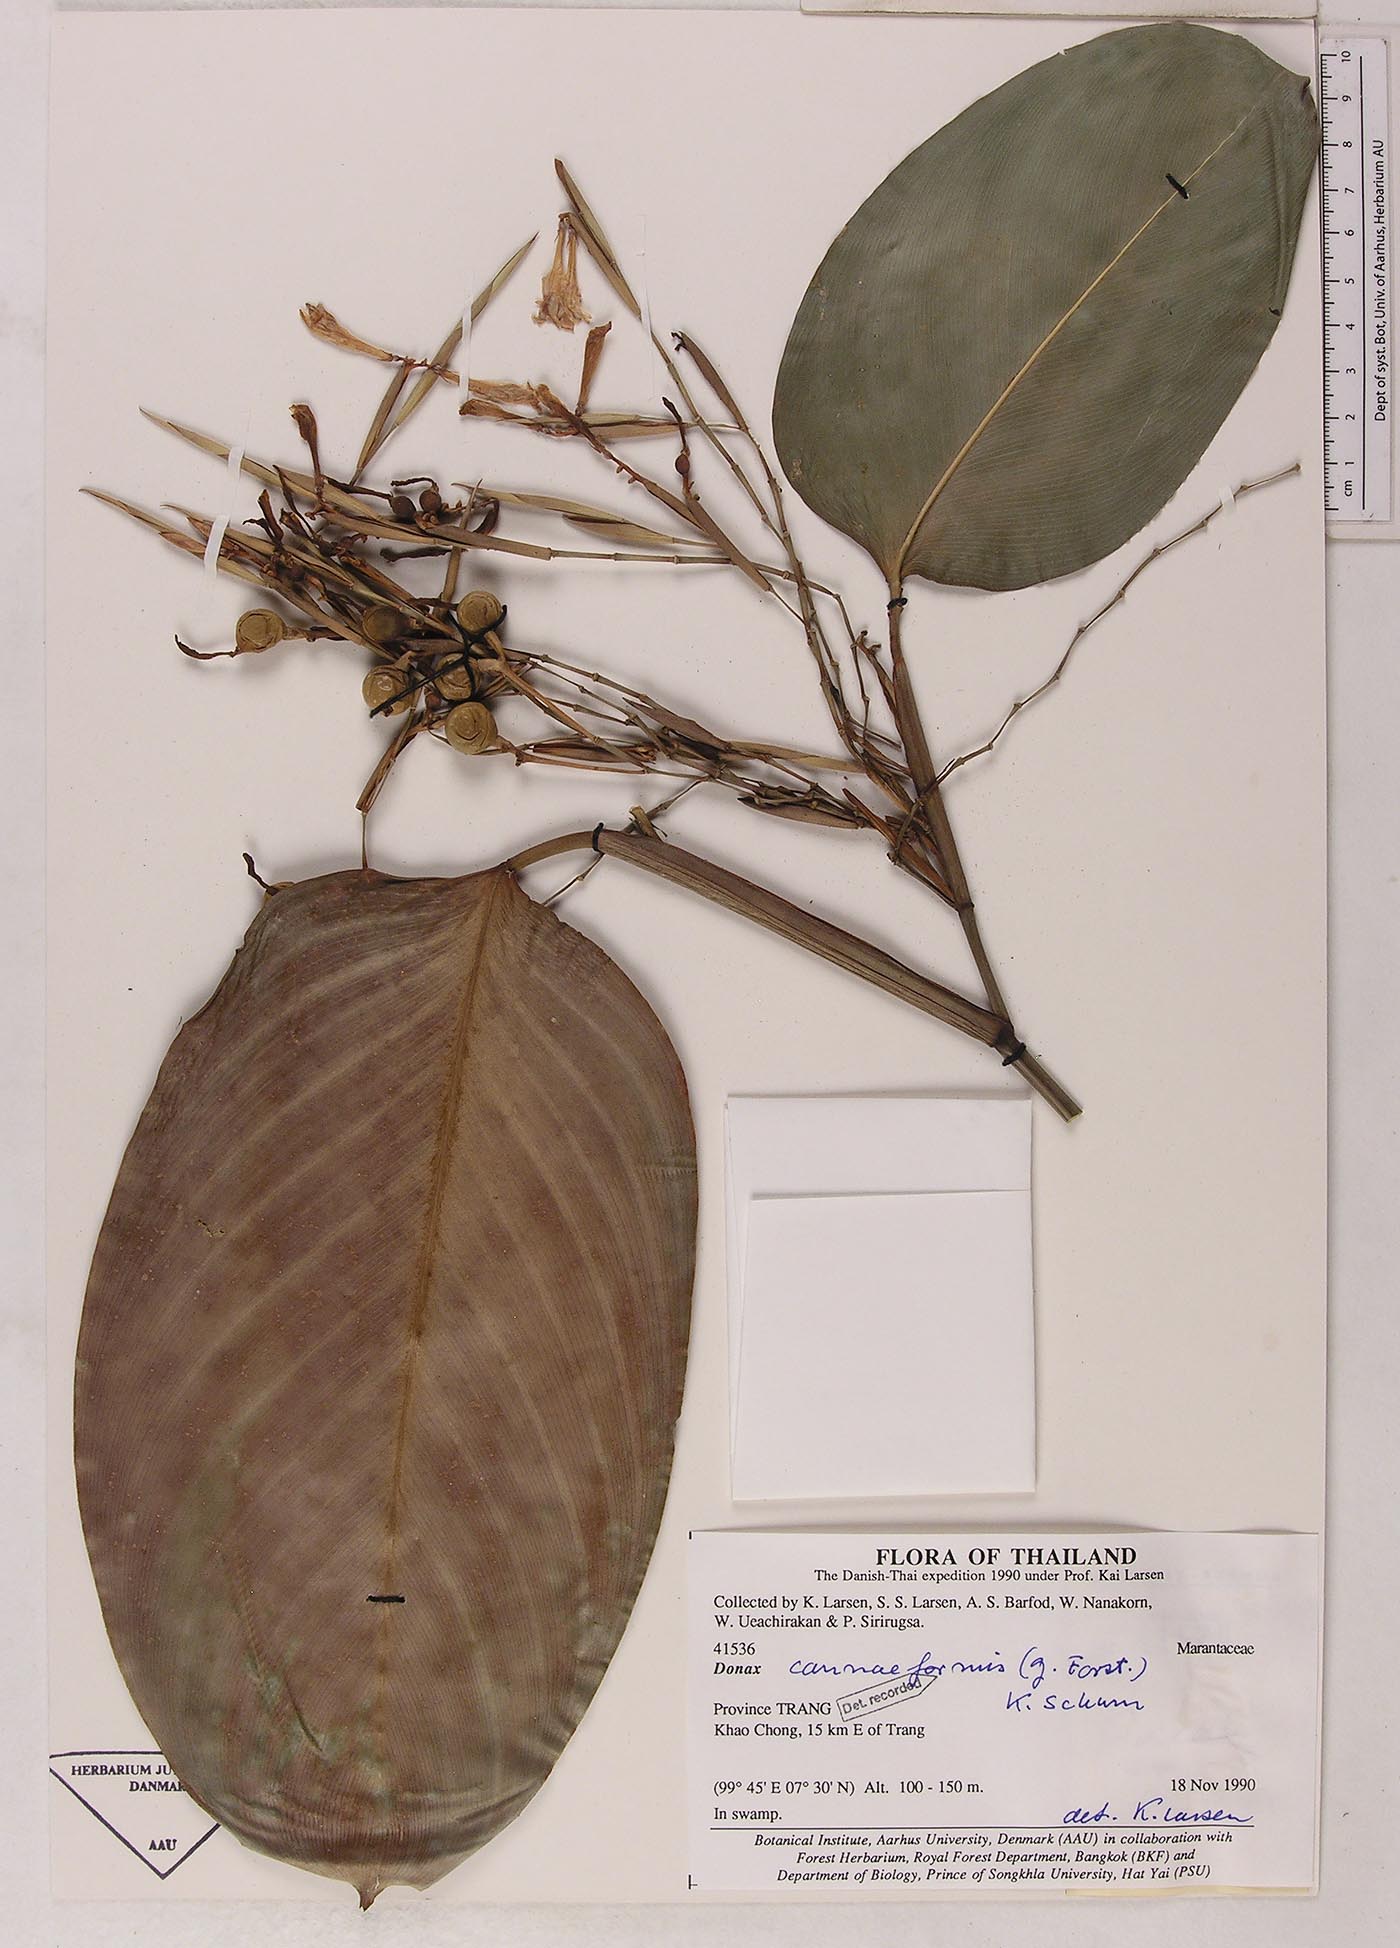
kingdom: Plantae
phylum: Tracheophyta
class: Liliopsida
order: Zingiberales
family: Marantaceae
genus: Donax
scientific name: Donax canniformis
